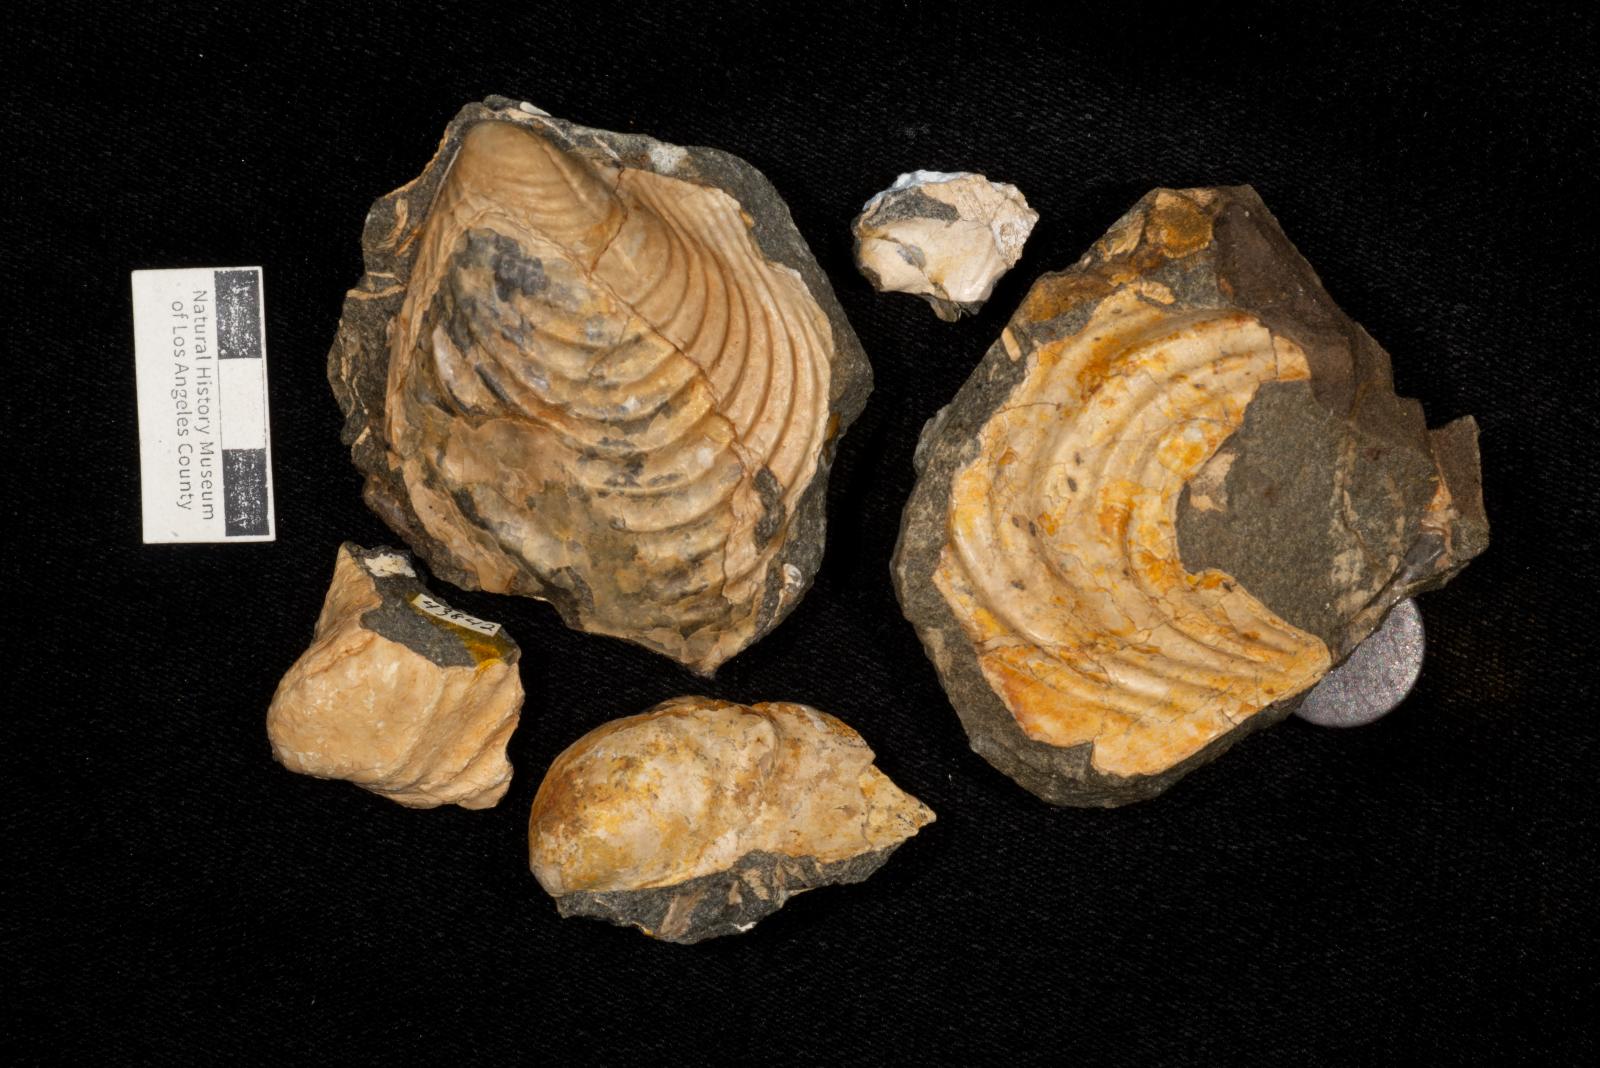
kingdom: Animalia
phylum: Mollusca
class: Bivalvia
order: Myalinida
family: Inoceramidae
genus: Inoceramus
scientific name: Inoceramus
